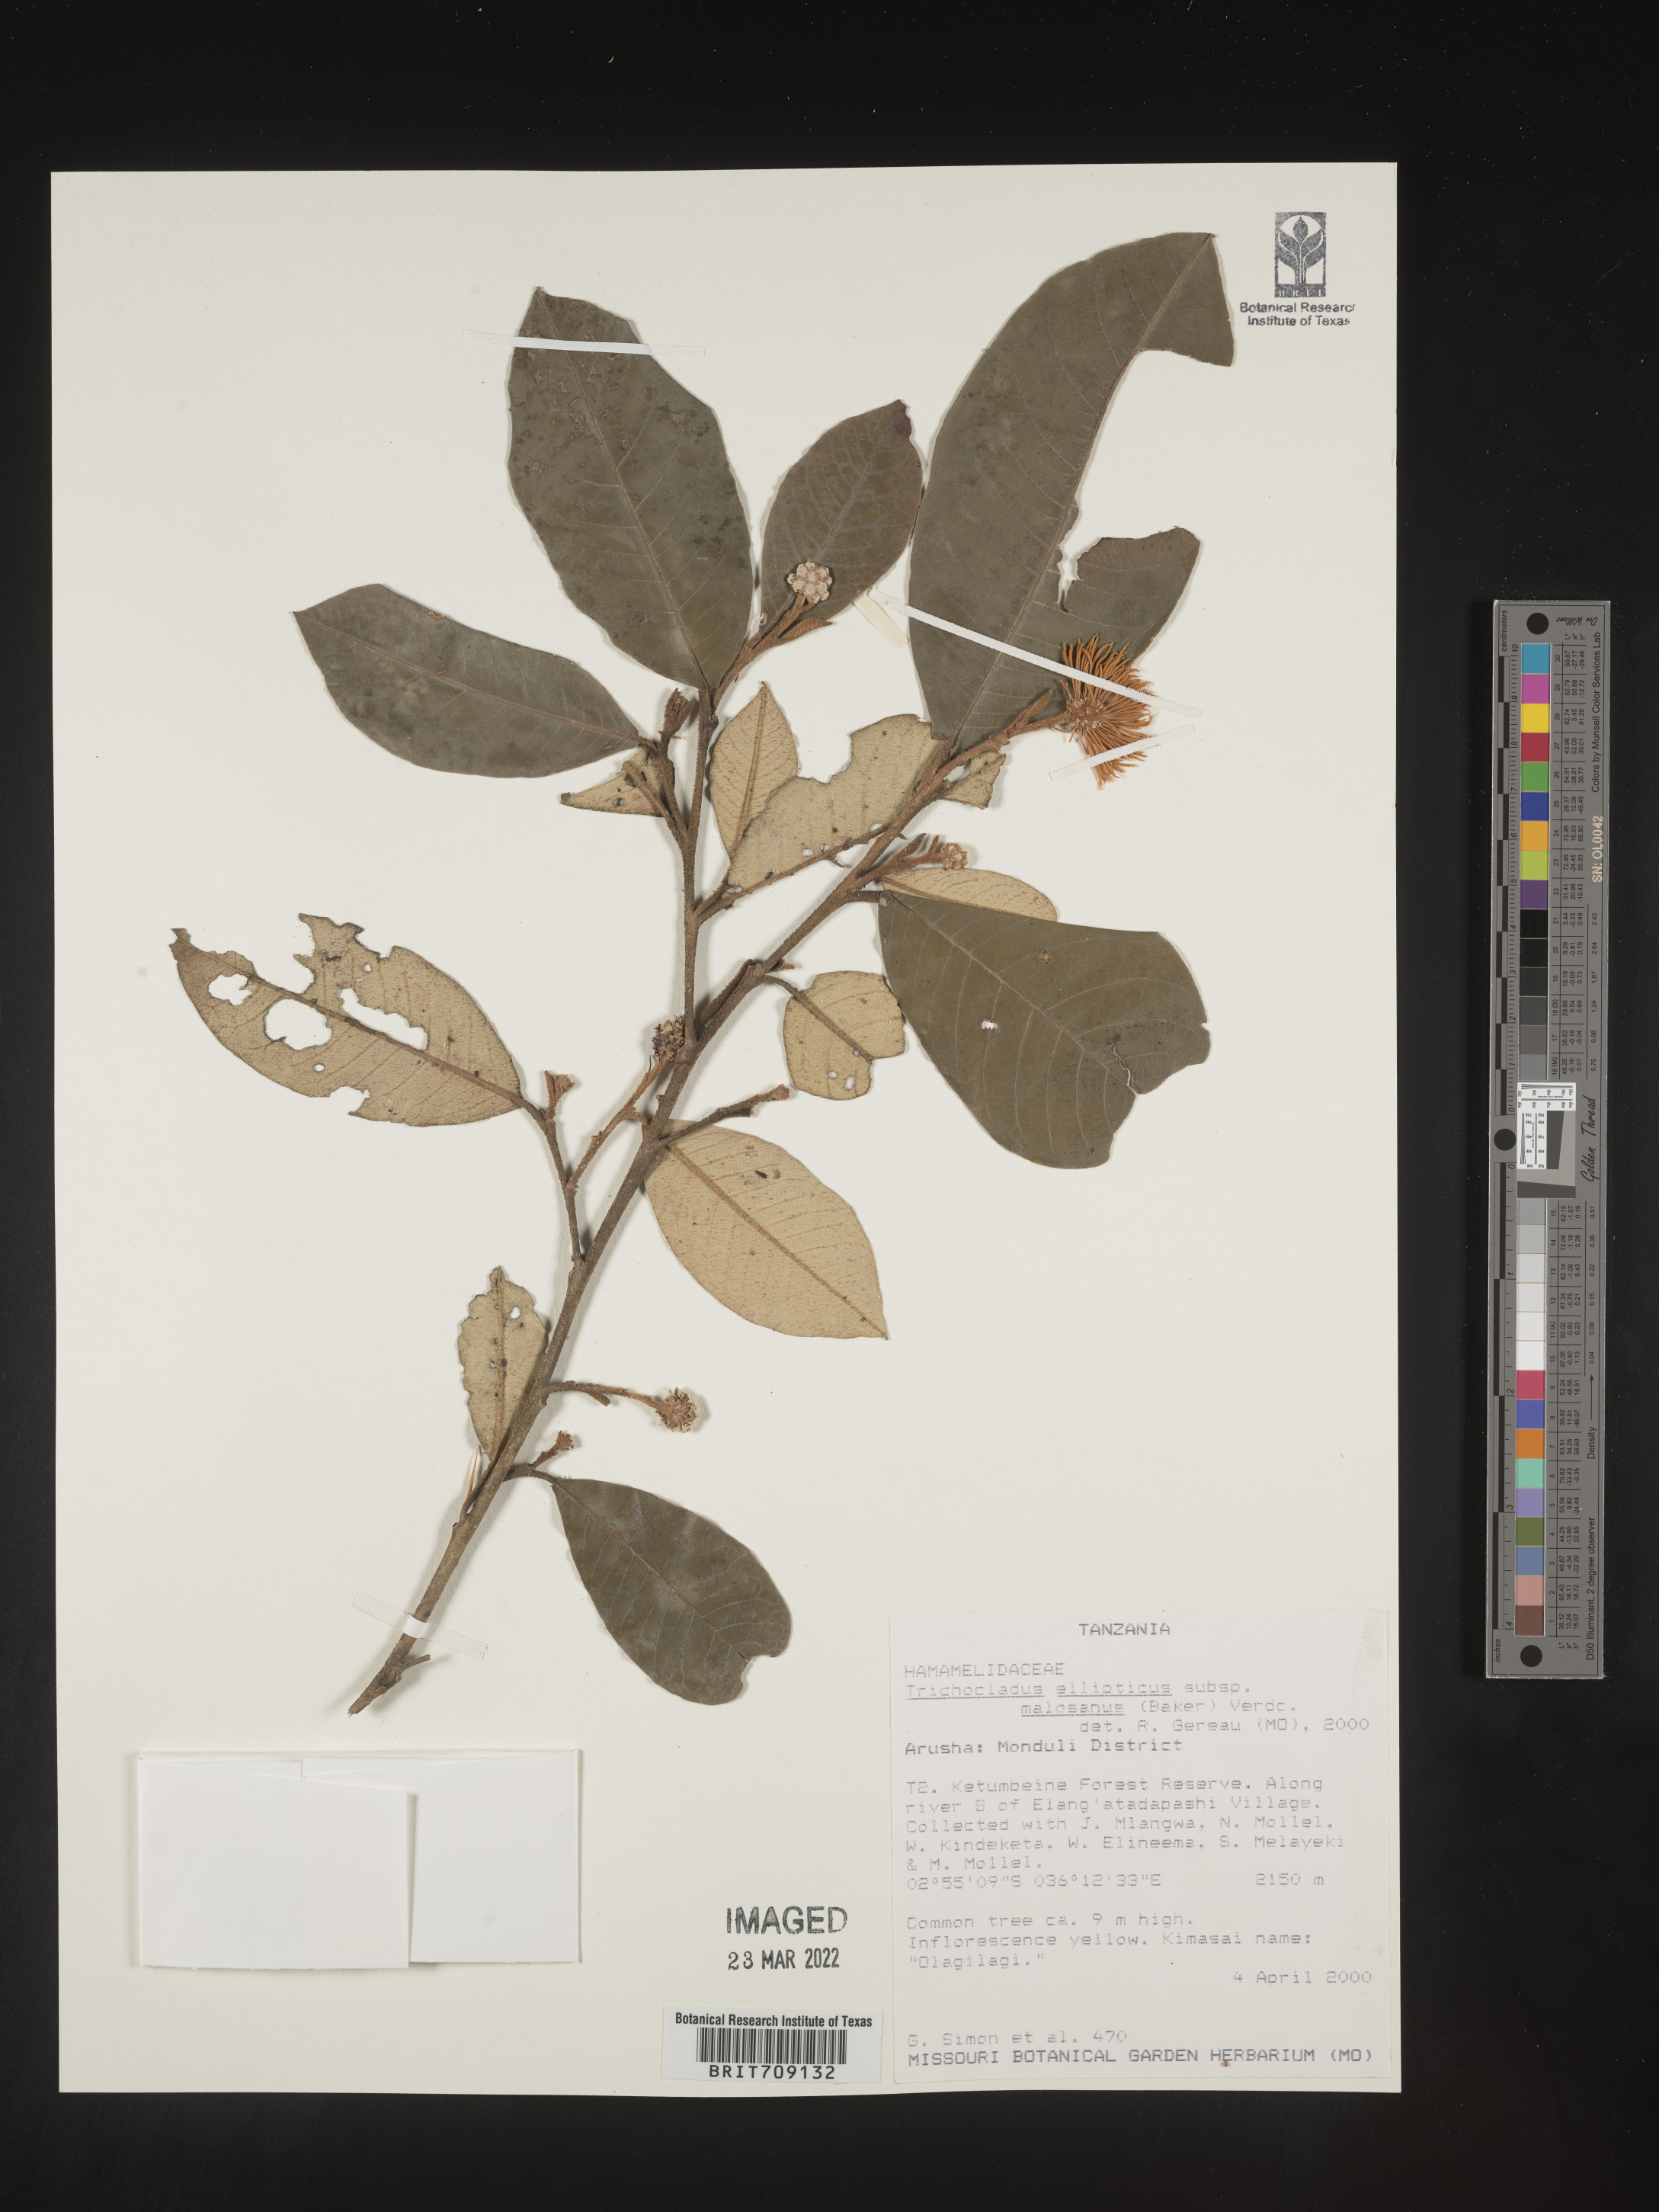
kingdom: Plantae
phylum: Tracheophyta
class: Magnoliopsida
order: Saxifragales
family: Hamamelidaceae
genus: Trichocladus
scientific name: Trichocladus
